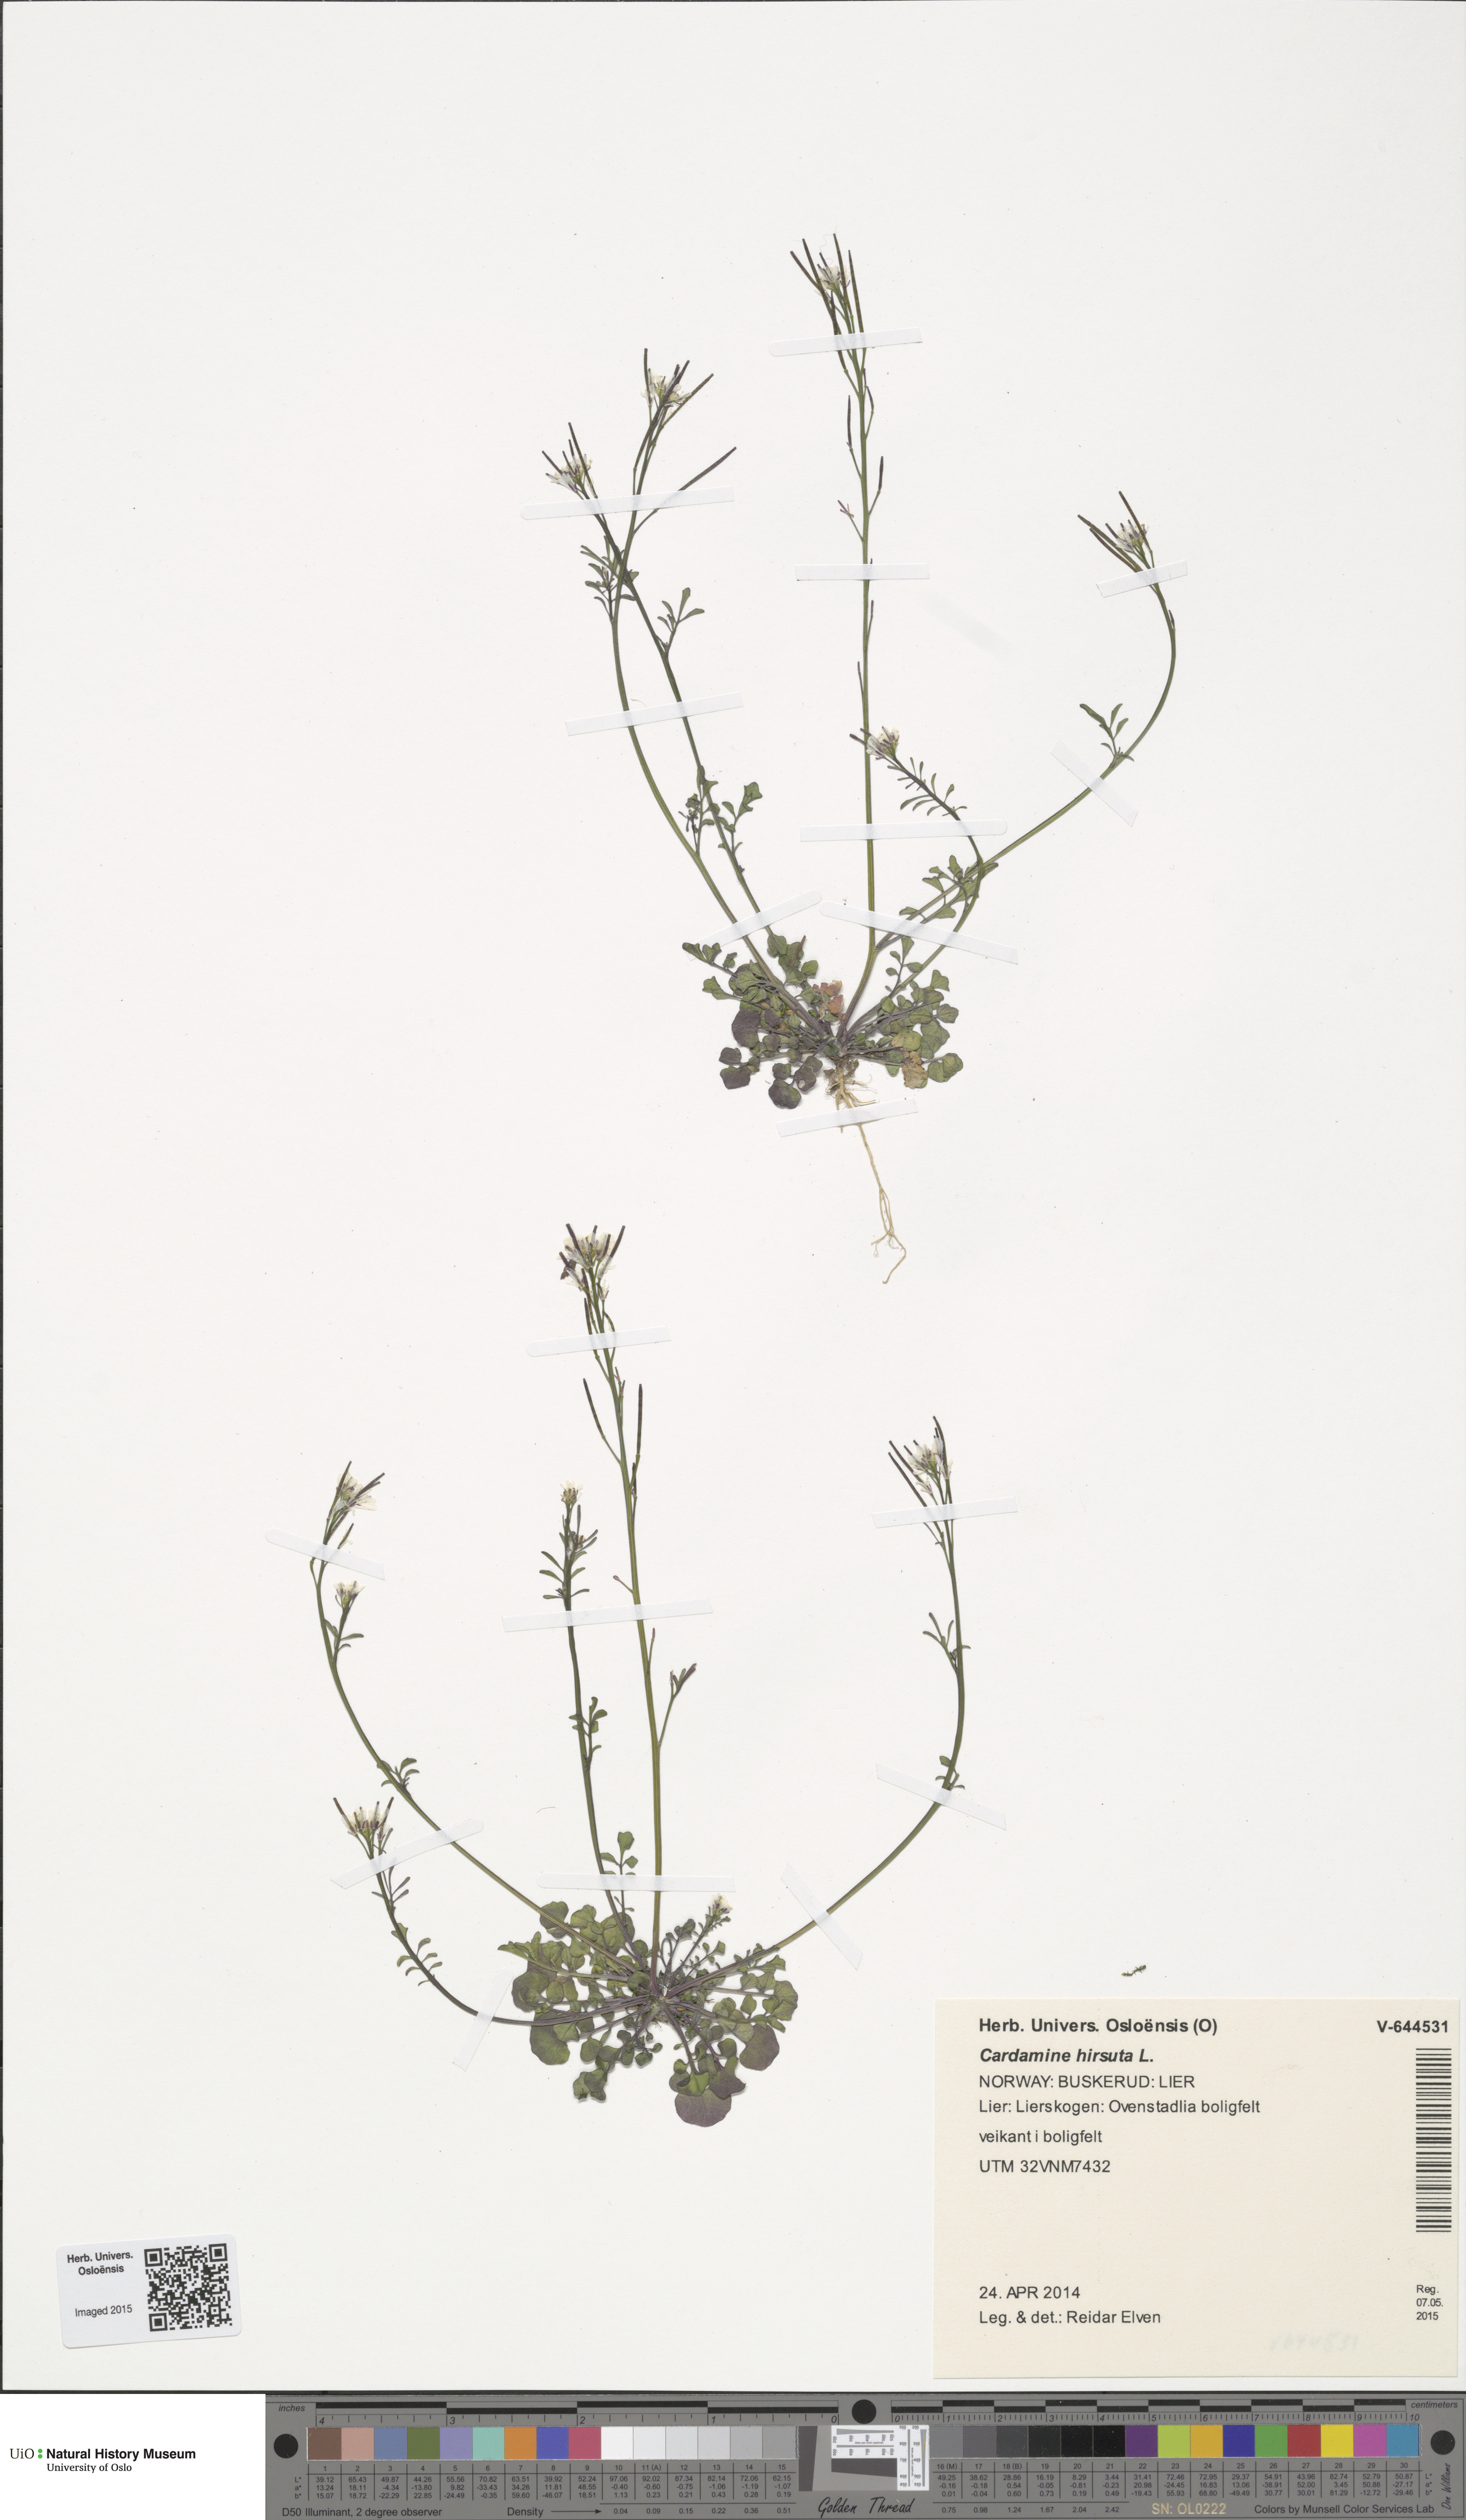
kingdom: Plantae
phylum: Tracheophyta
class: Magnoliopsida
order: Brassicales
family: Brassicaceae
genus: Cardamine
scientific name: Cardamine hirsuta
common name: Hairy bittercress
